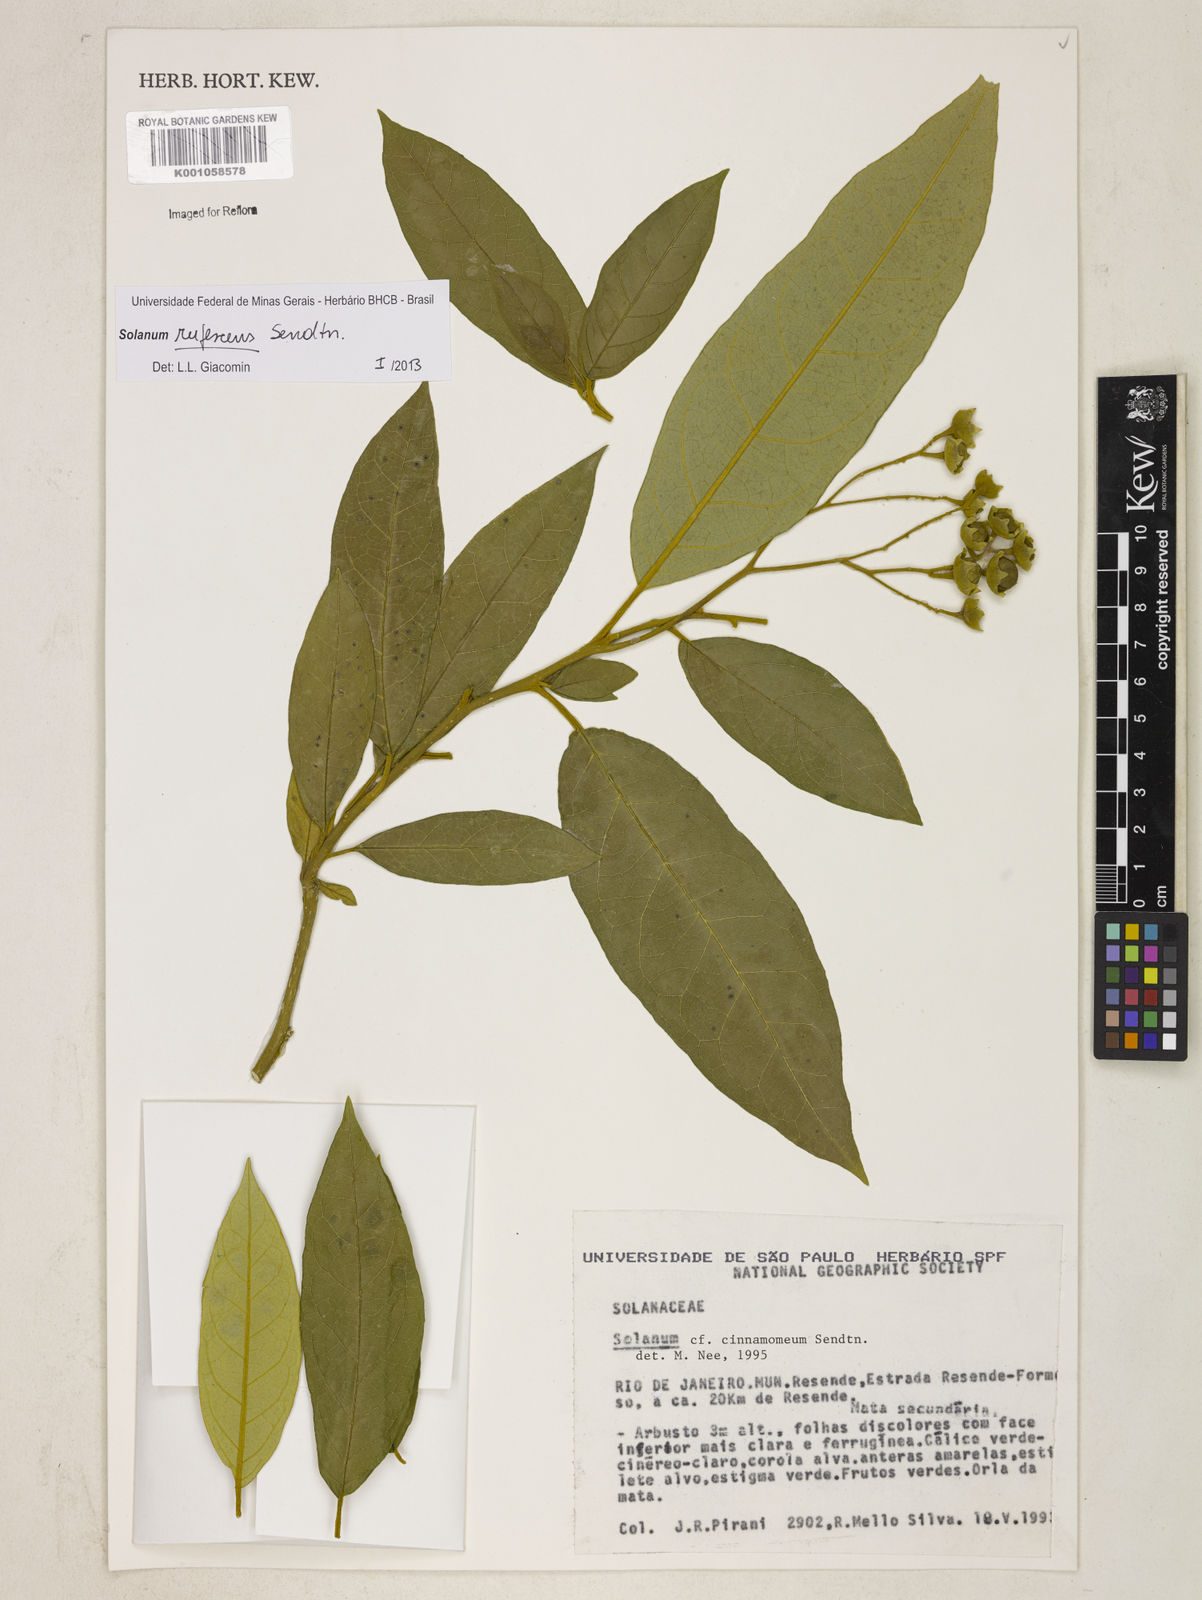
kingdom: Plantae
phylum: Tracheophyta
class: Magnoliopsida
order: Solanales
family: Solanaceae
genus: Solanum
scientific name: Solanum
